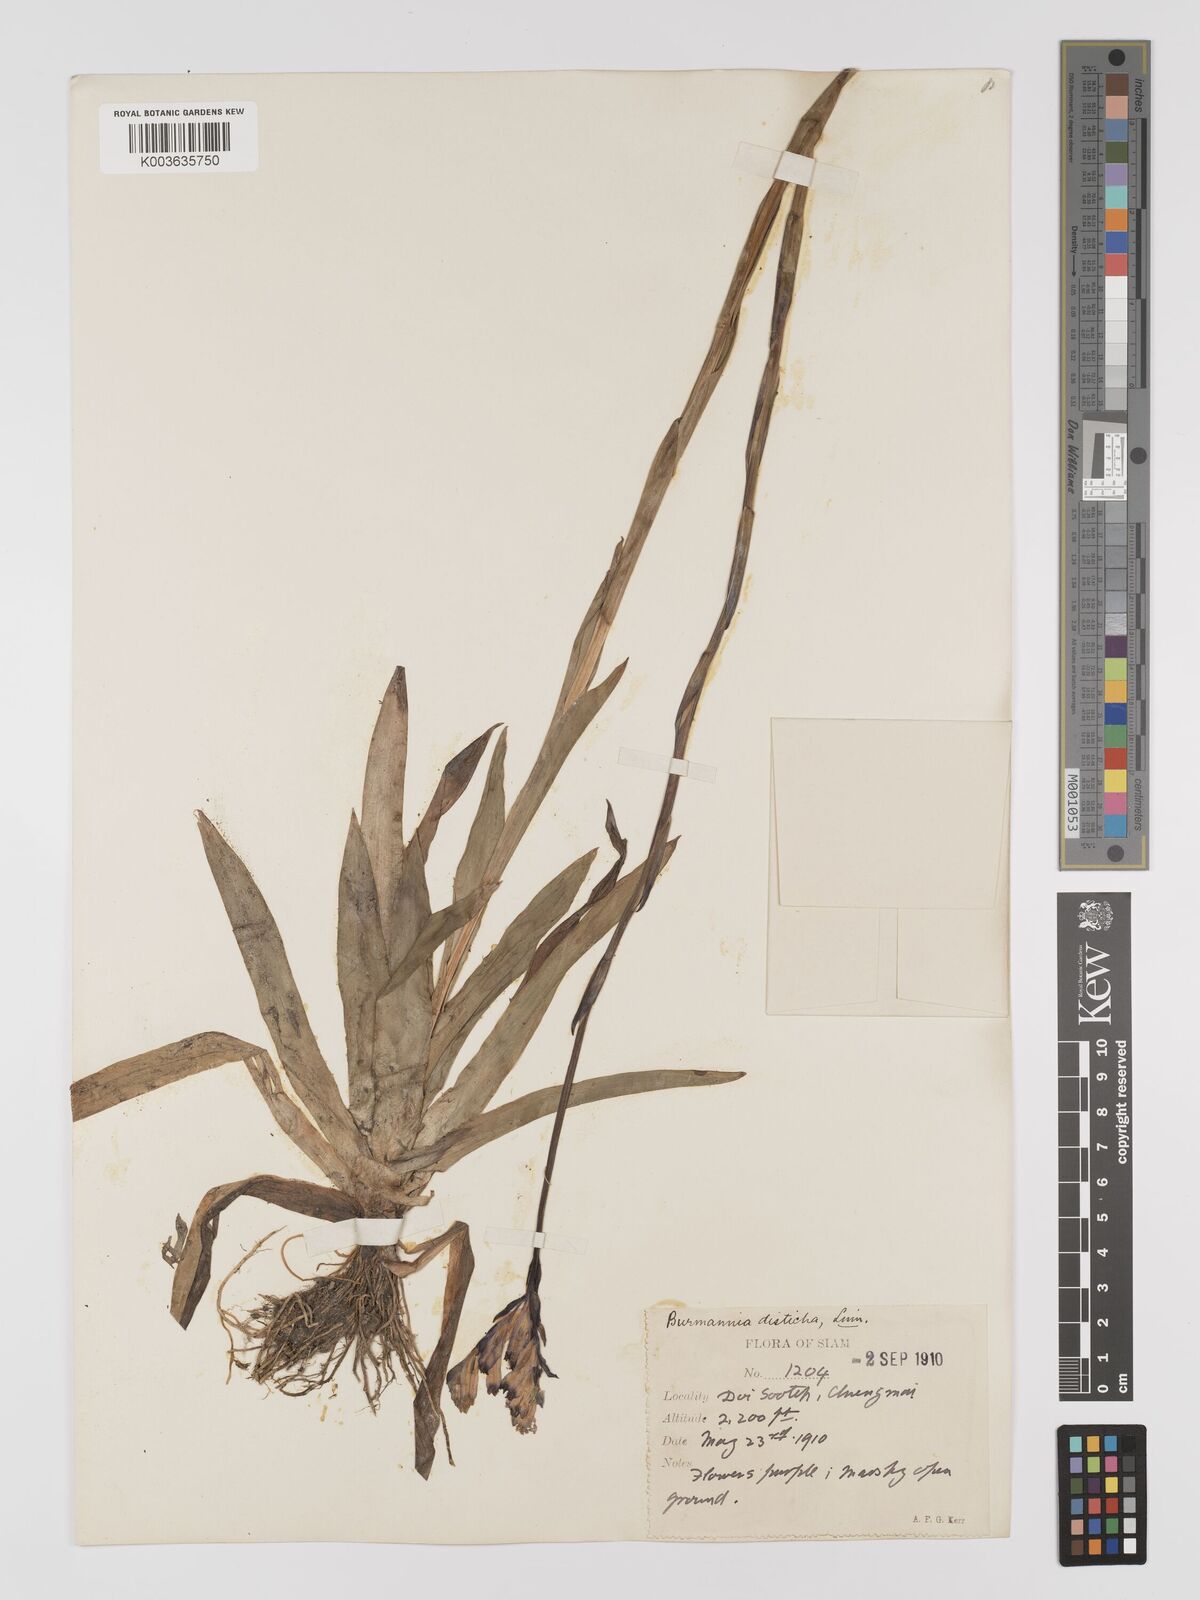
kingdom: Plantae
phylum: Tracheophyta
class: Liliopsida
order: Dioscoreales
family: Burmanniaceae
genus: Burmannia
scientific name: Burmannia disticha
